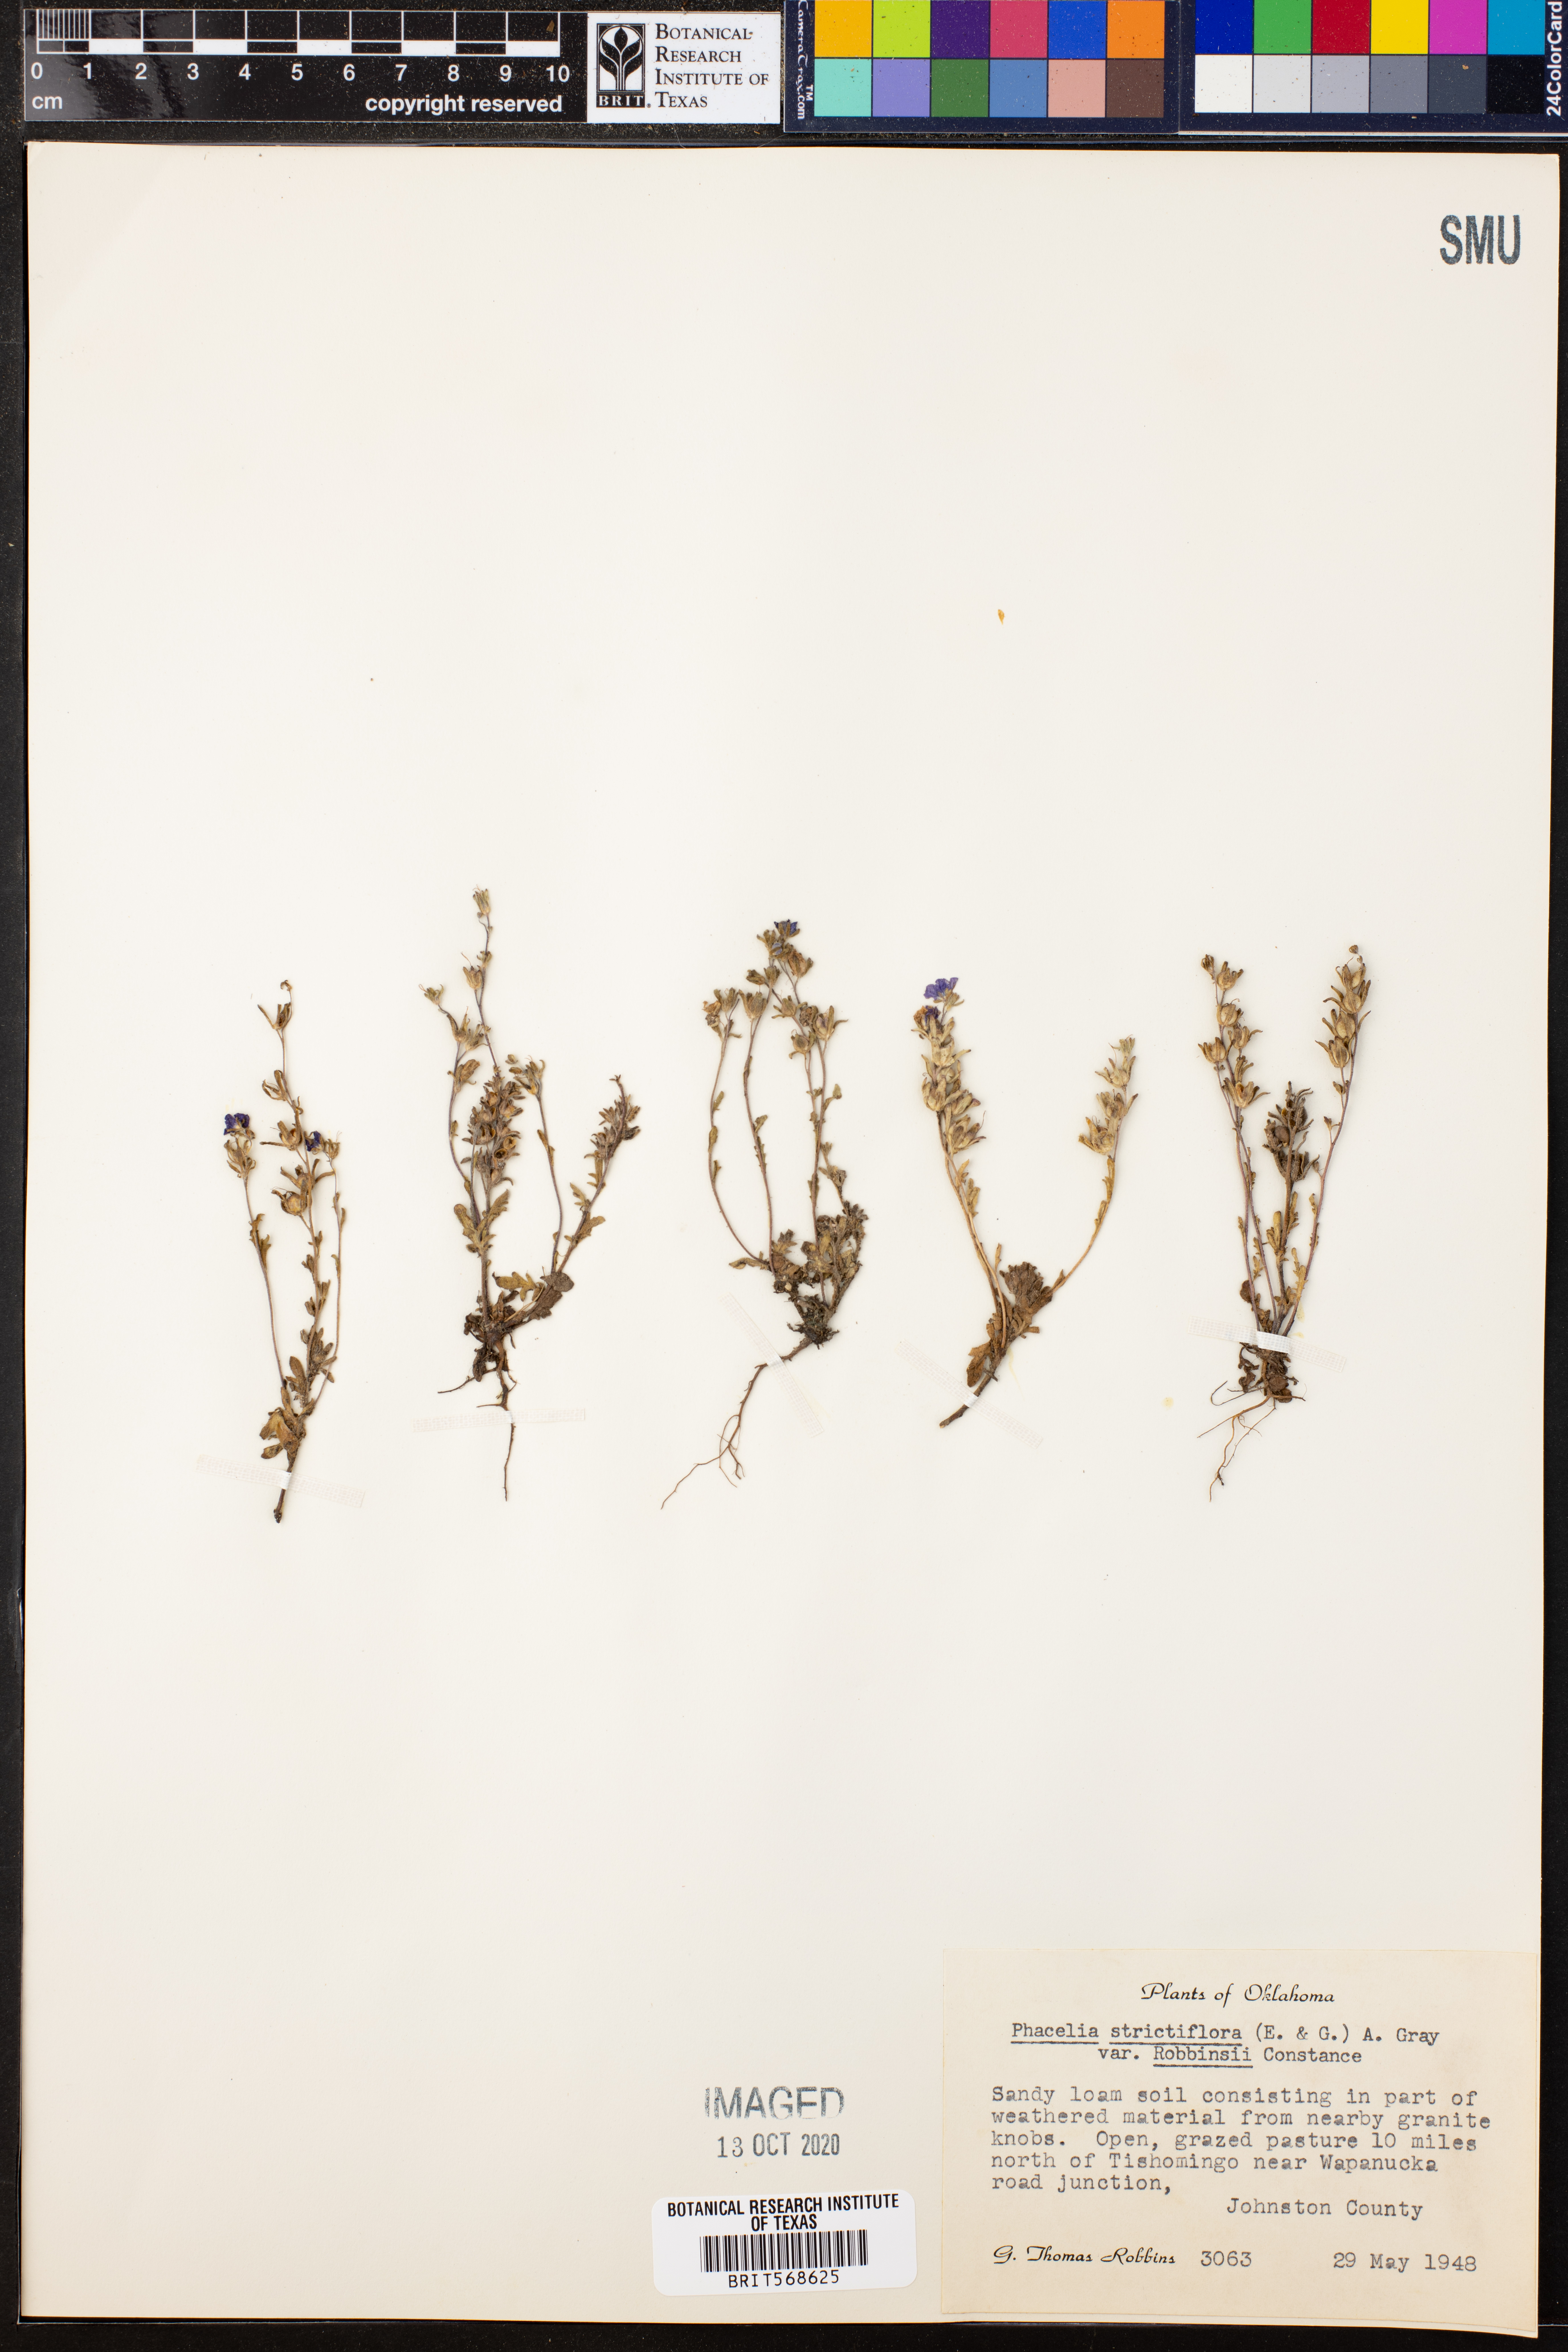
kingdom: Plantae
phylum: Tracheophyta
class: Magnoliopsida
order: Boraginales
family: Hydrophyllaceae
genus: Phacelia
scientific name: Phacelia strictiflora
